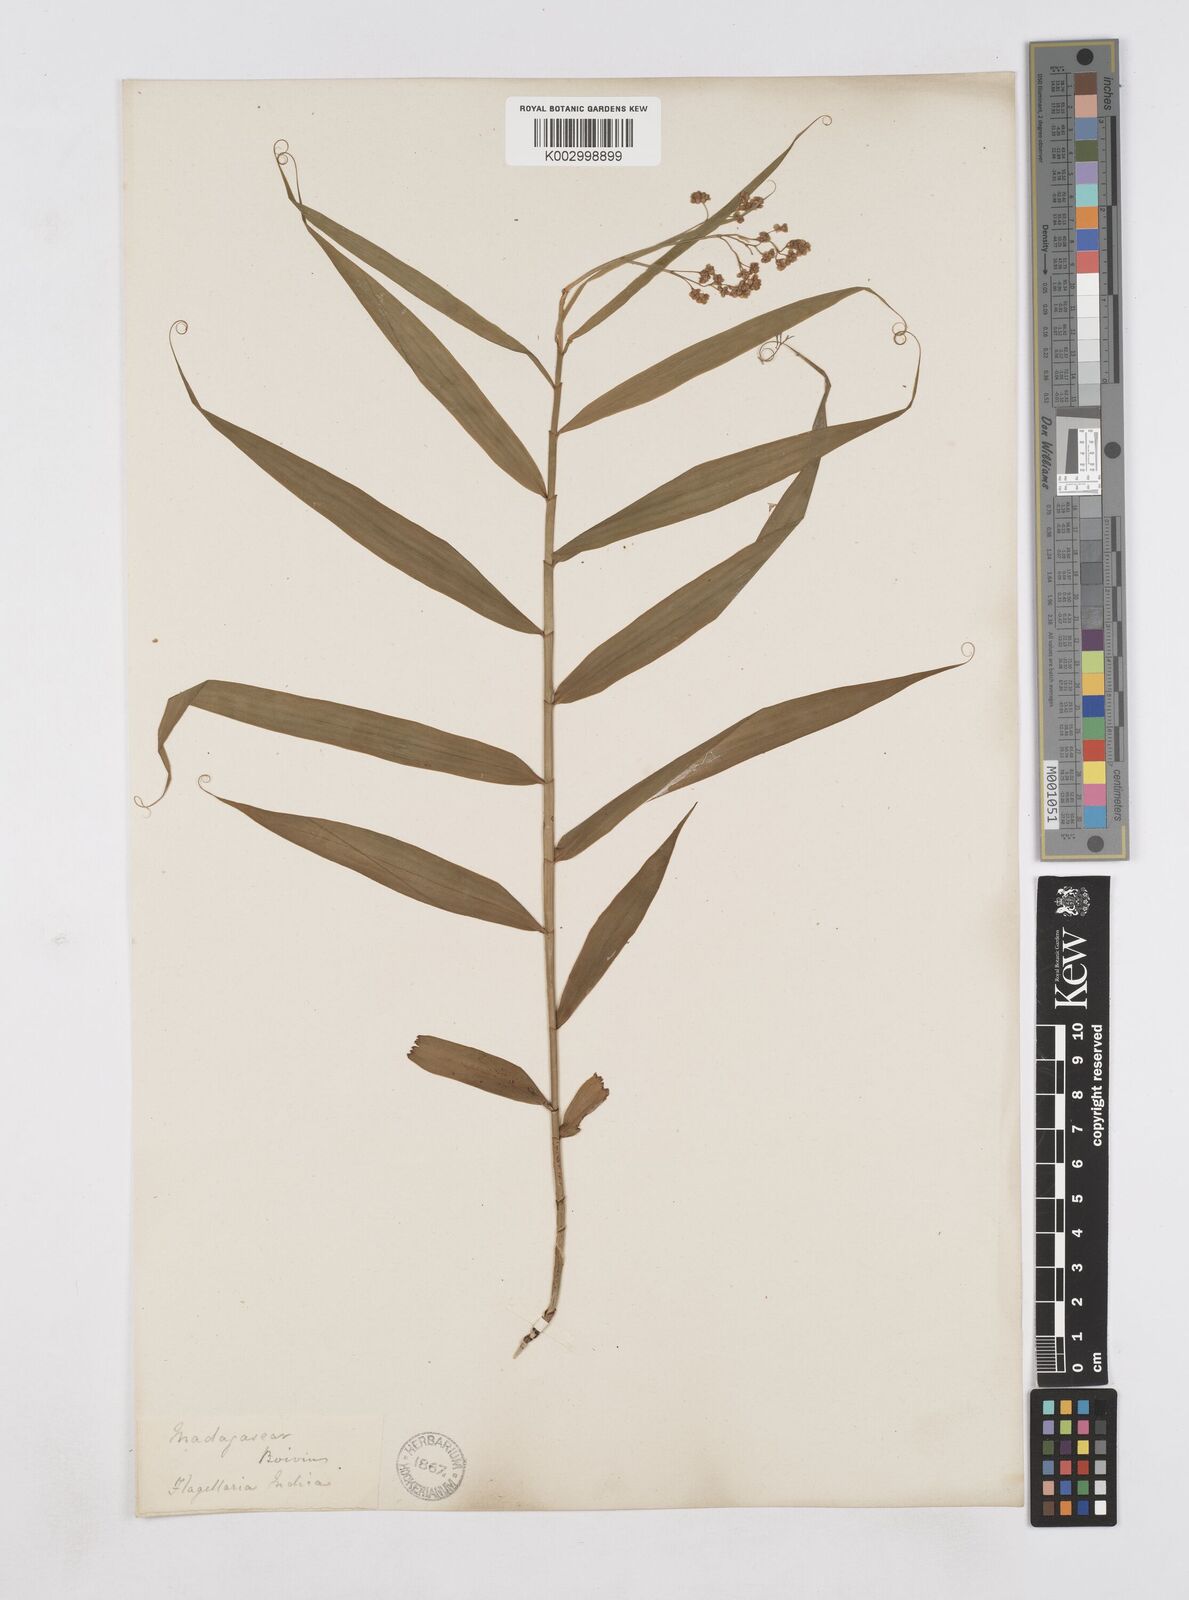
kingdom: Plantae
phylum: Tracheophyta
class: Liliopsida
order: Poales
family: Flagellariaceae
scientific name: Flagellariaceae
